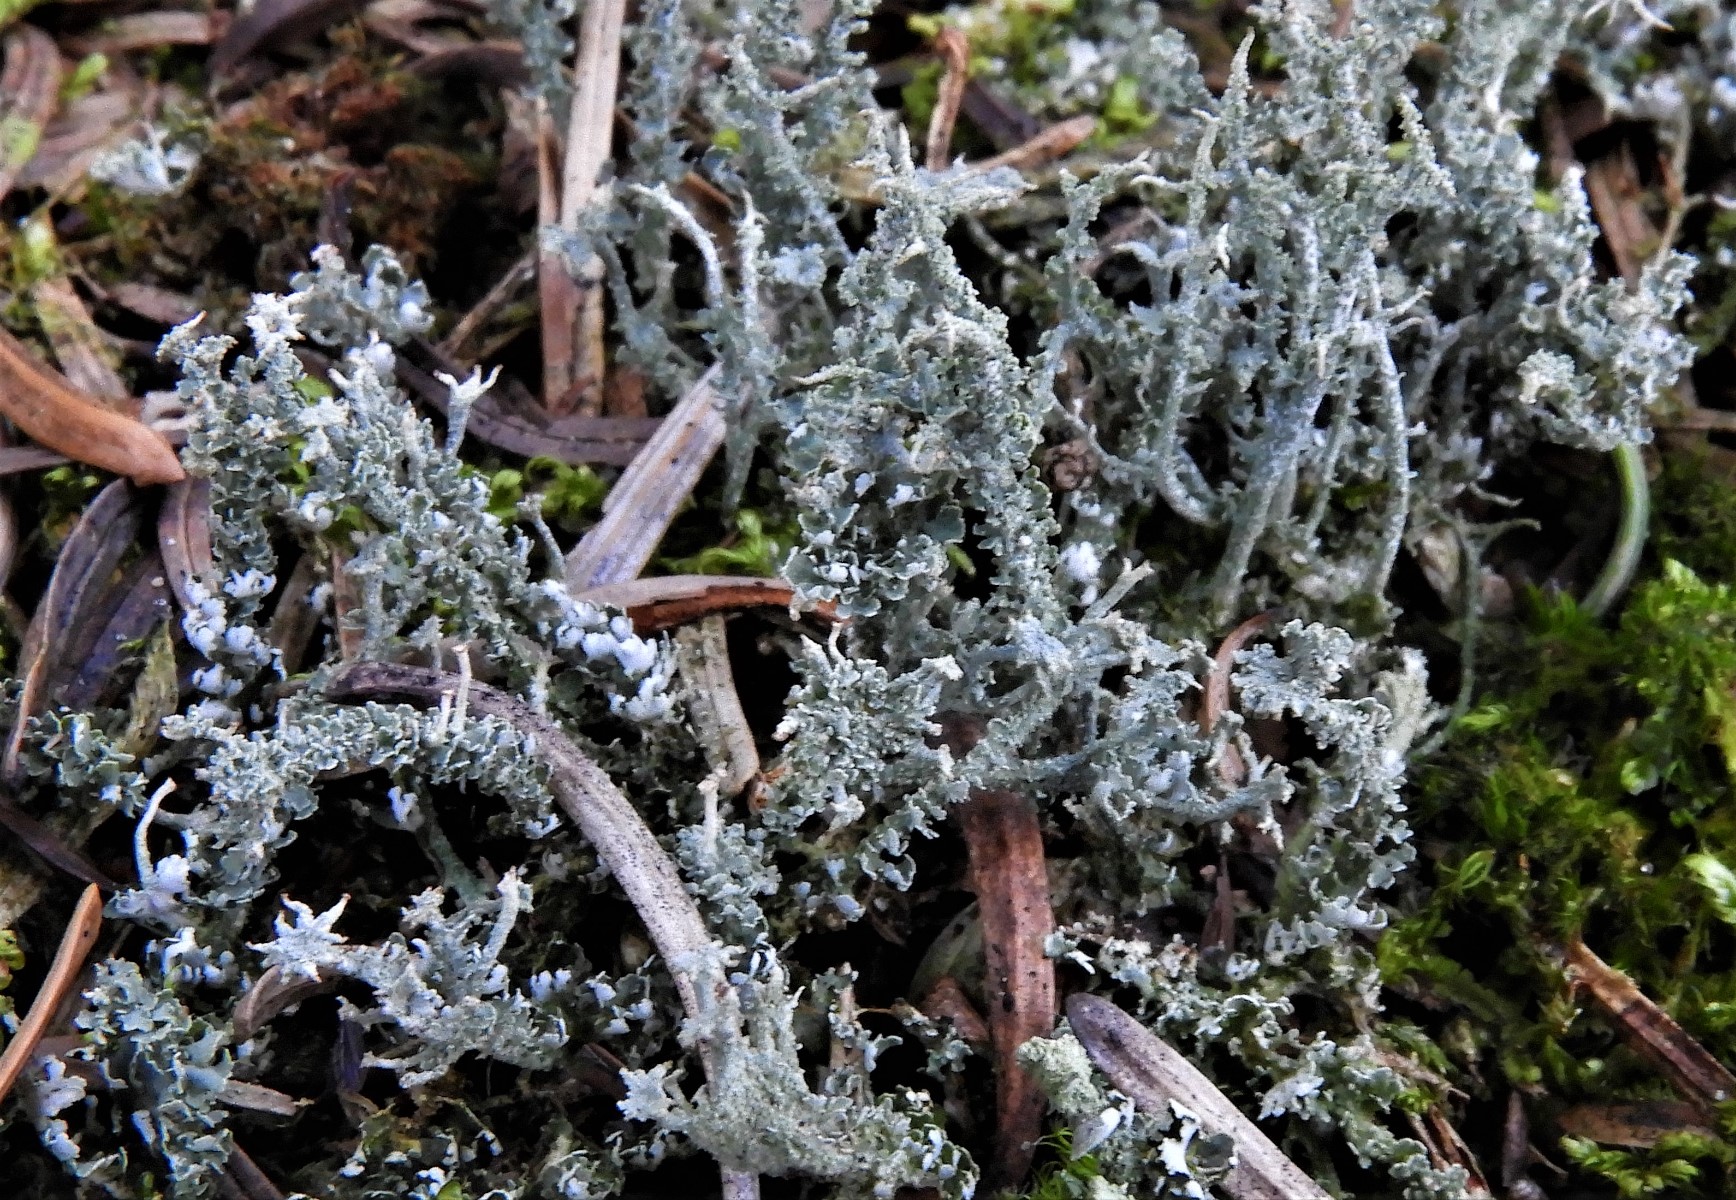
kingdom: Fungi
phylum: Ascomycota
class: Lecanoromycetes
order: Lecanorales
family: Cladoniaceae
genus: Cladonia
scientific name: Cladonia ramulosa
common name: kliddet bægerlav
